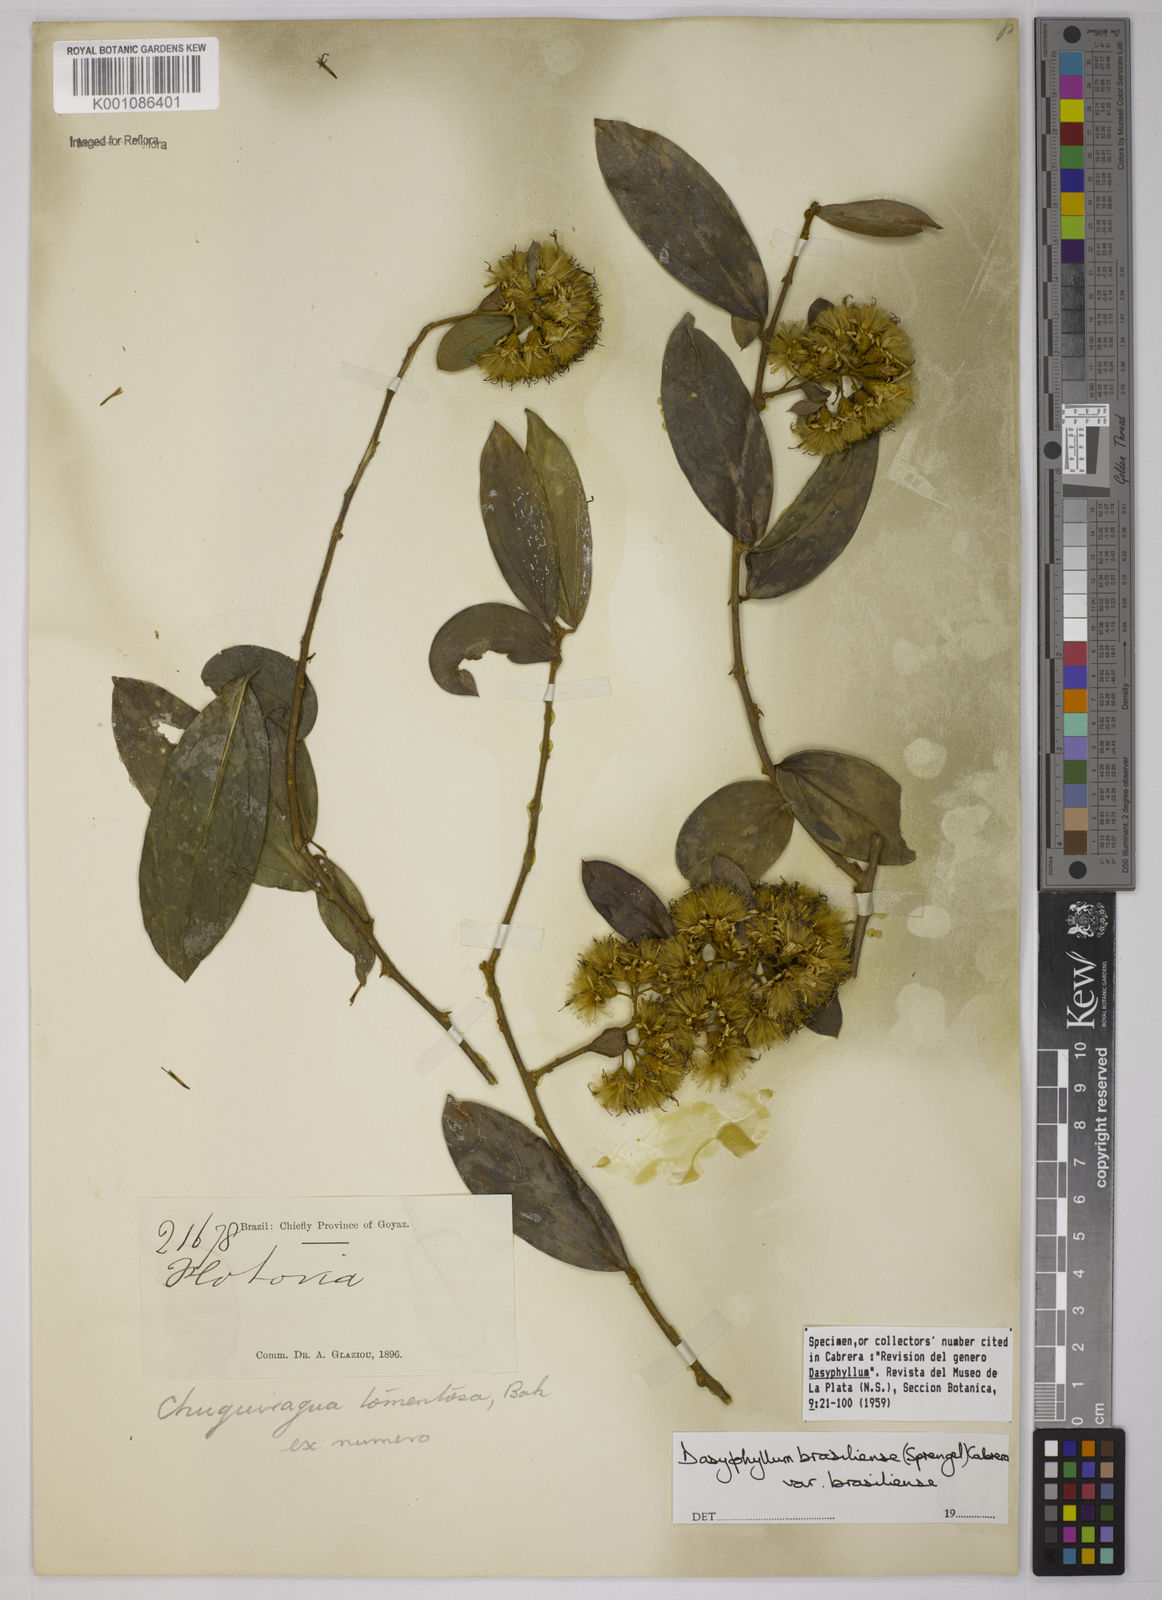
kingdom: Plantae
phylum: Tracheophyta
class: Magnoliopsida
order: Asterales
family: Asteraceae
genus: Dasyphyllum
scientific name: Dasyphyllum brasiliense
